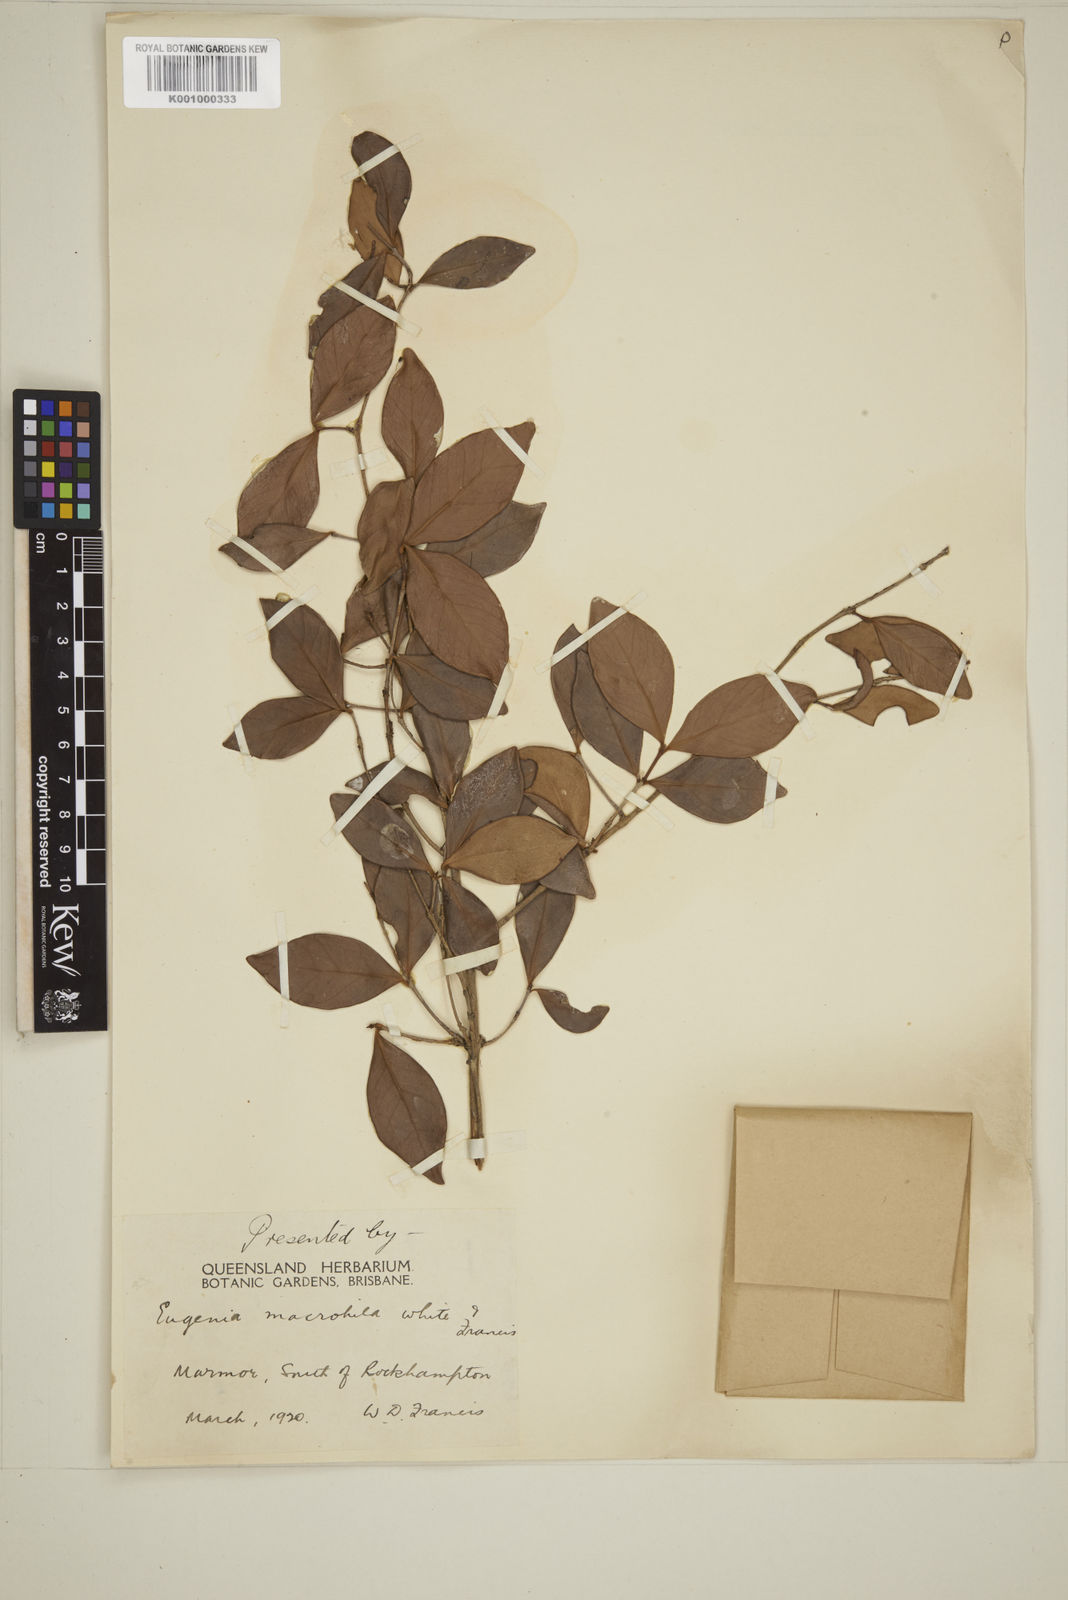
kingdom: Plantae
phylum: Tracheophyta
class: Magnoliopsida
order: Myrtales
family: Myrtaceae
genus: Eugenia
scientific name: Eugenia reinwardtiana
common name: Cedar bay-cherry
